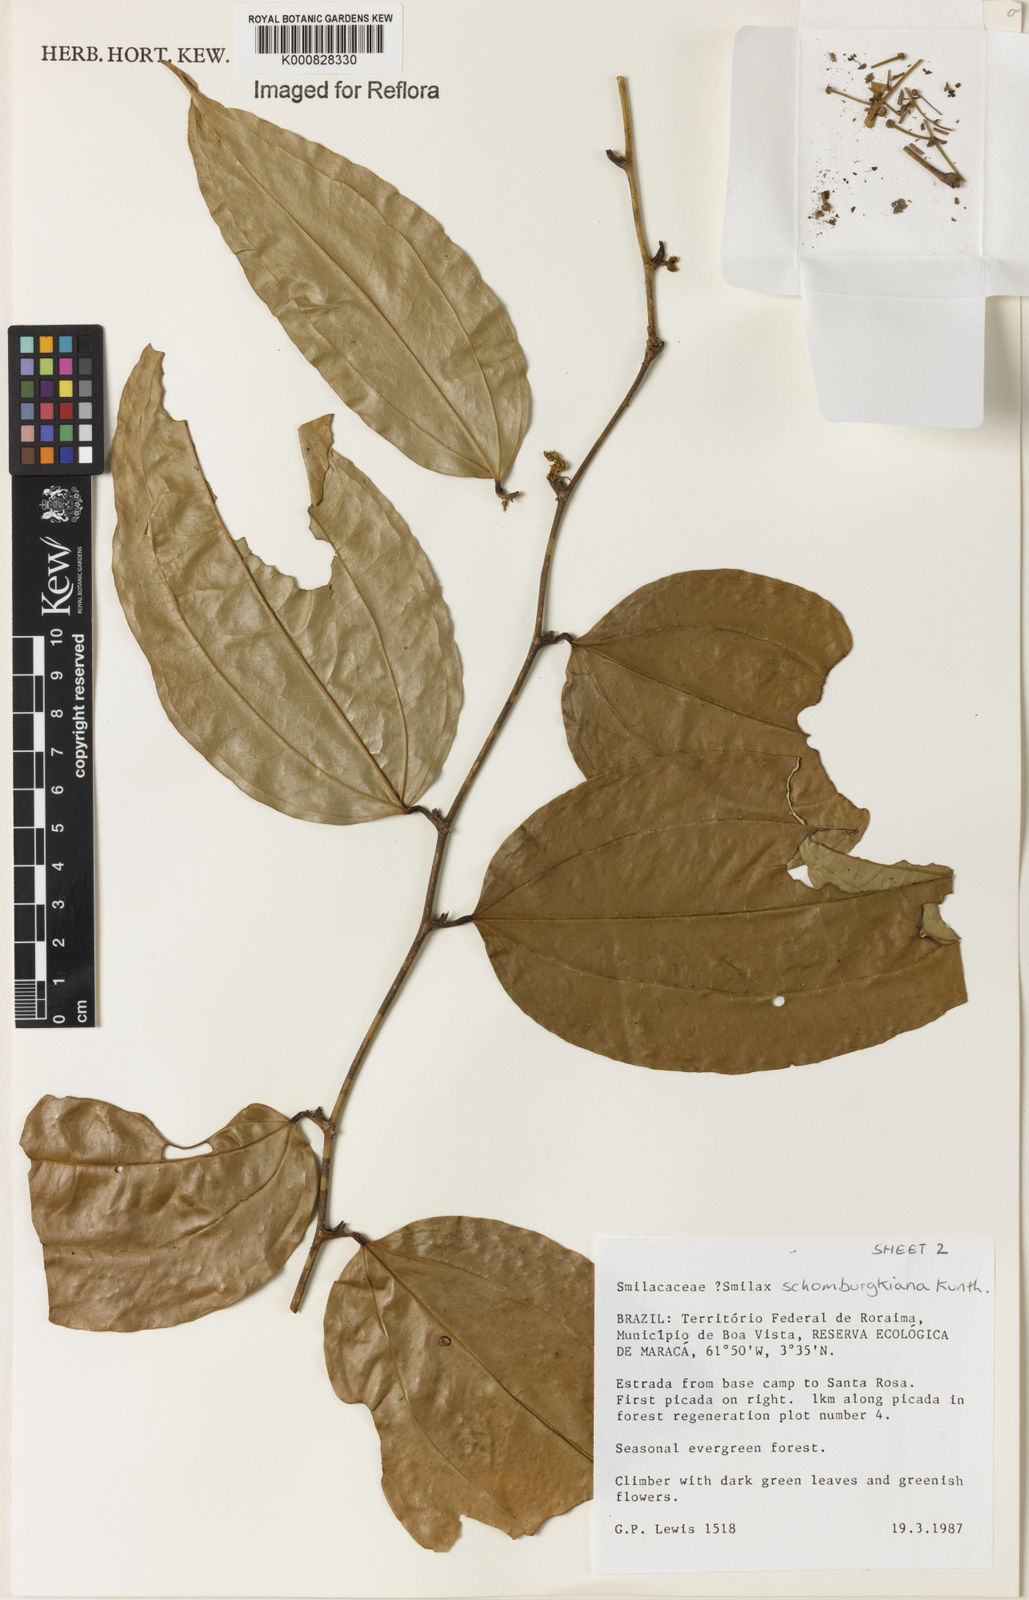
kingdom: Plantae
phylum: Tracheophyta
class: Liliopsida
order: Liliales
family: Smilacaceae
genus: Smilax
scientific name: Smilax schomburgkiana
